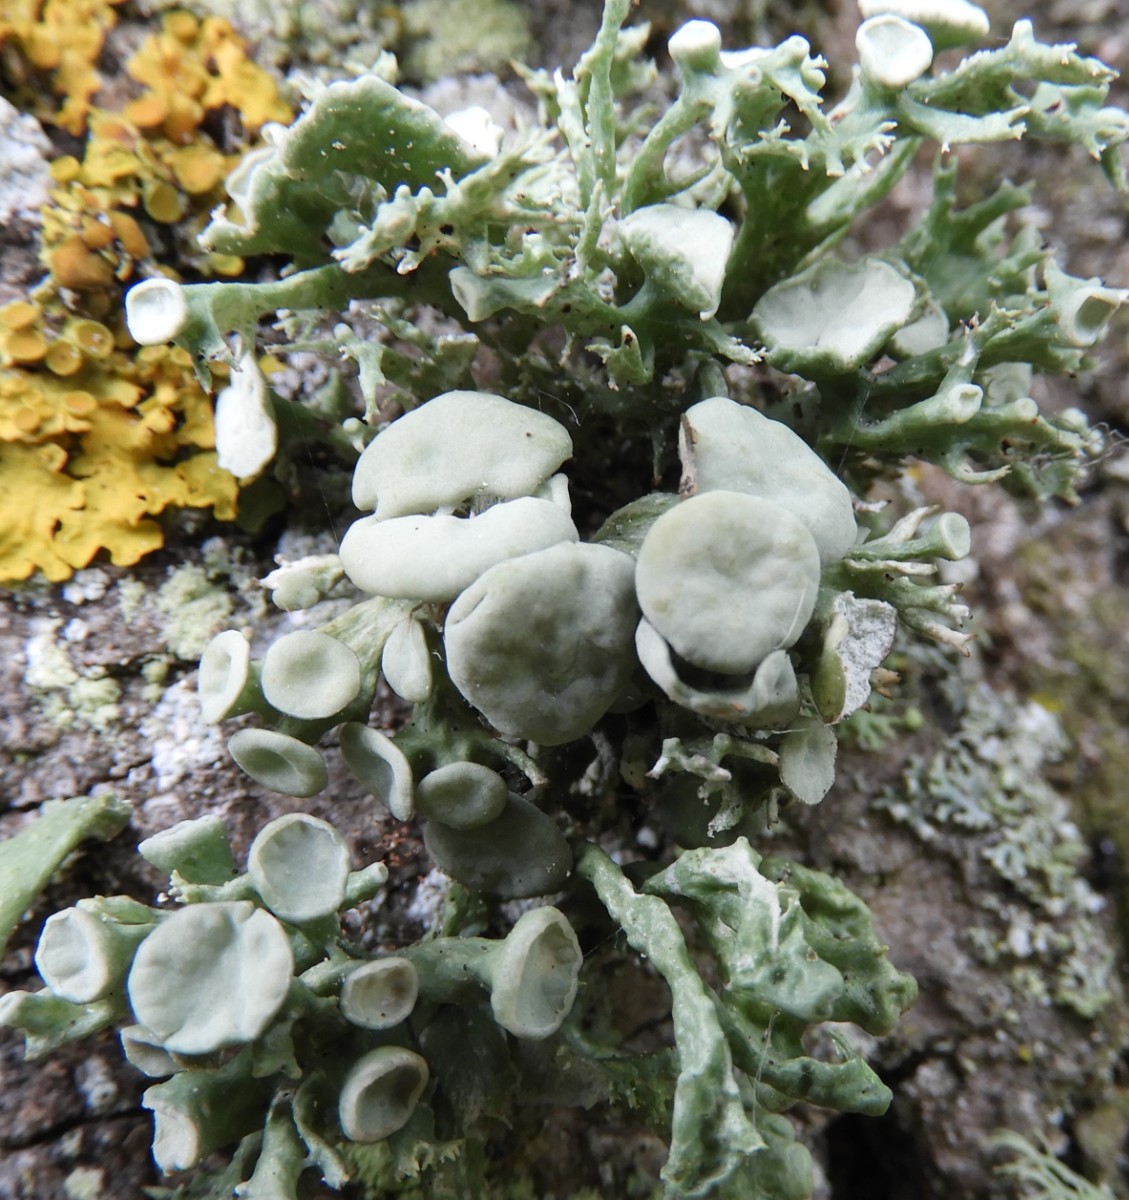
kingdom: Fungi
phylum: Ascomycota
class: Lecanoromycetes
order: Lecanorales
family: Ramalinaceae
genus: Ramalina
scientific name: Ramalina fastigiata
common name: tue-grenlav
